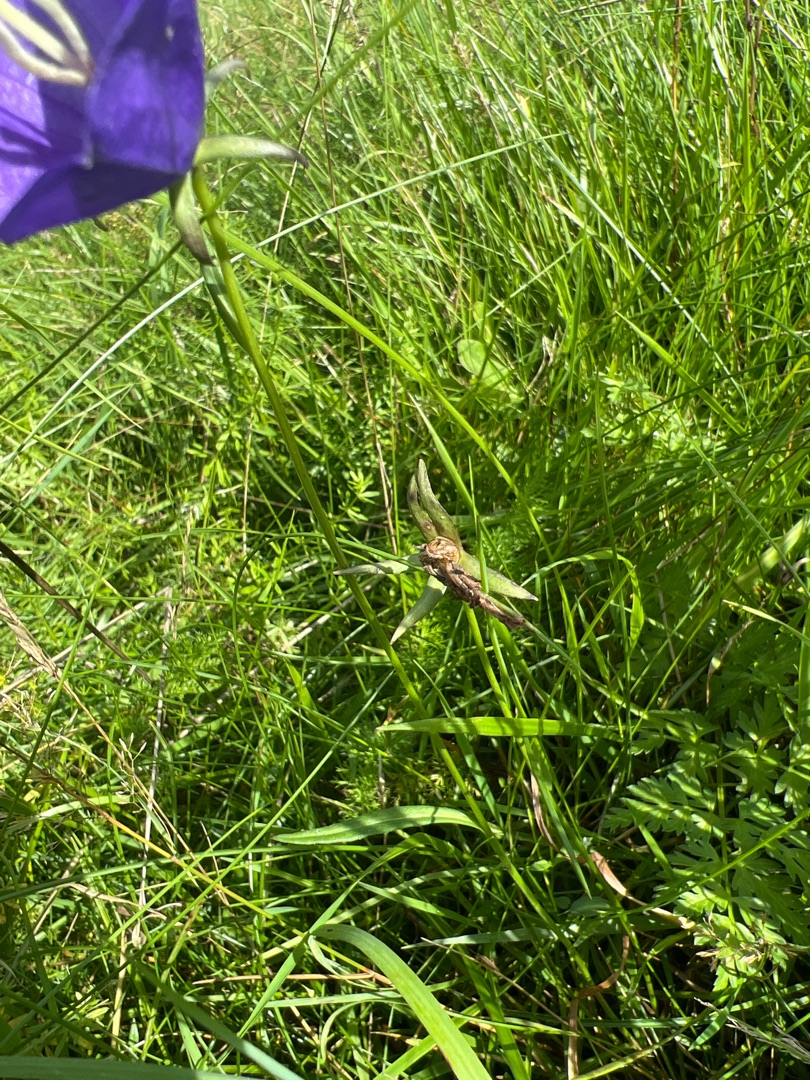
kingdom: Plantae
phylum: Tracheophyta
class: Magnoliopsida
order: Asterales
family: Campanulaceae
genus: Campanula
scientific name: Campanula persicifolia
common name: Smalbladet klokke
